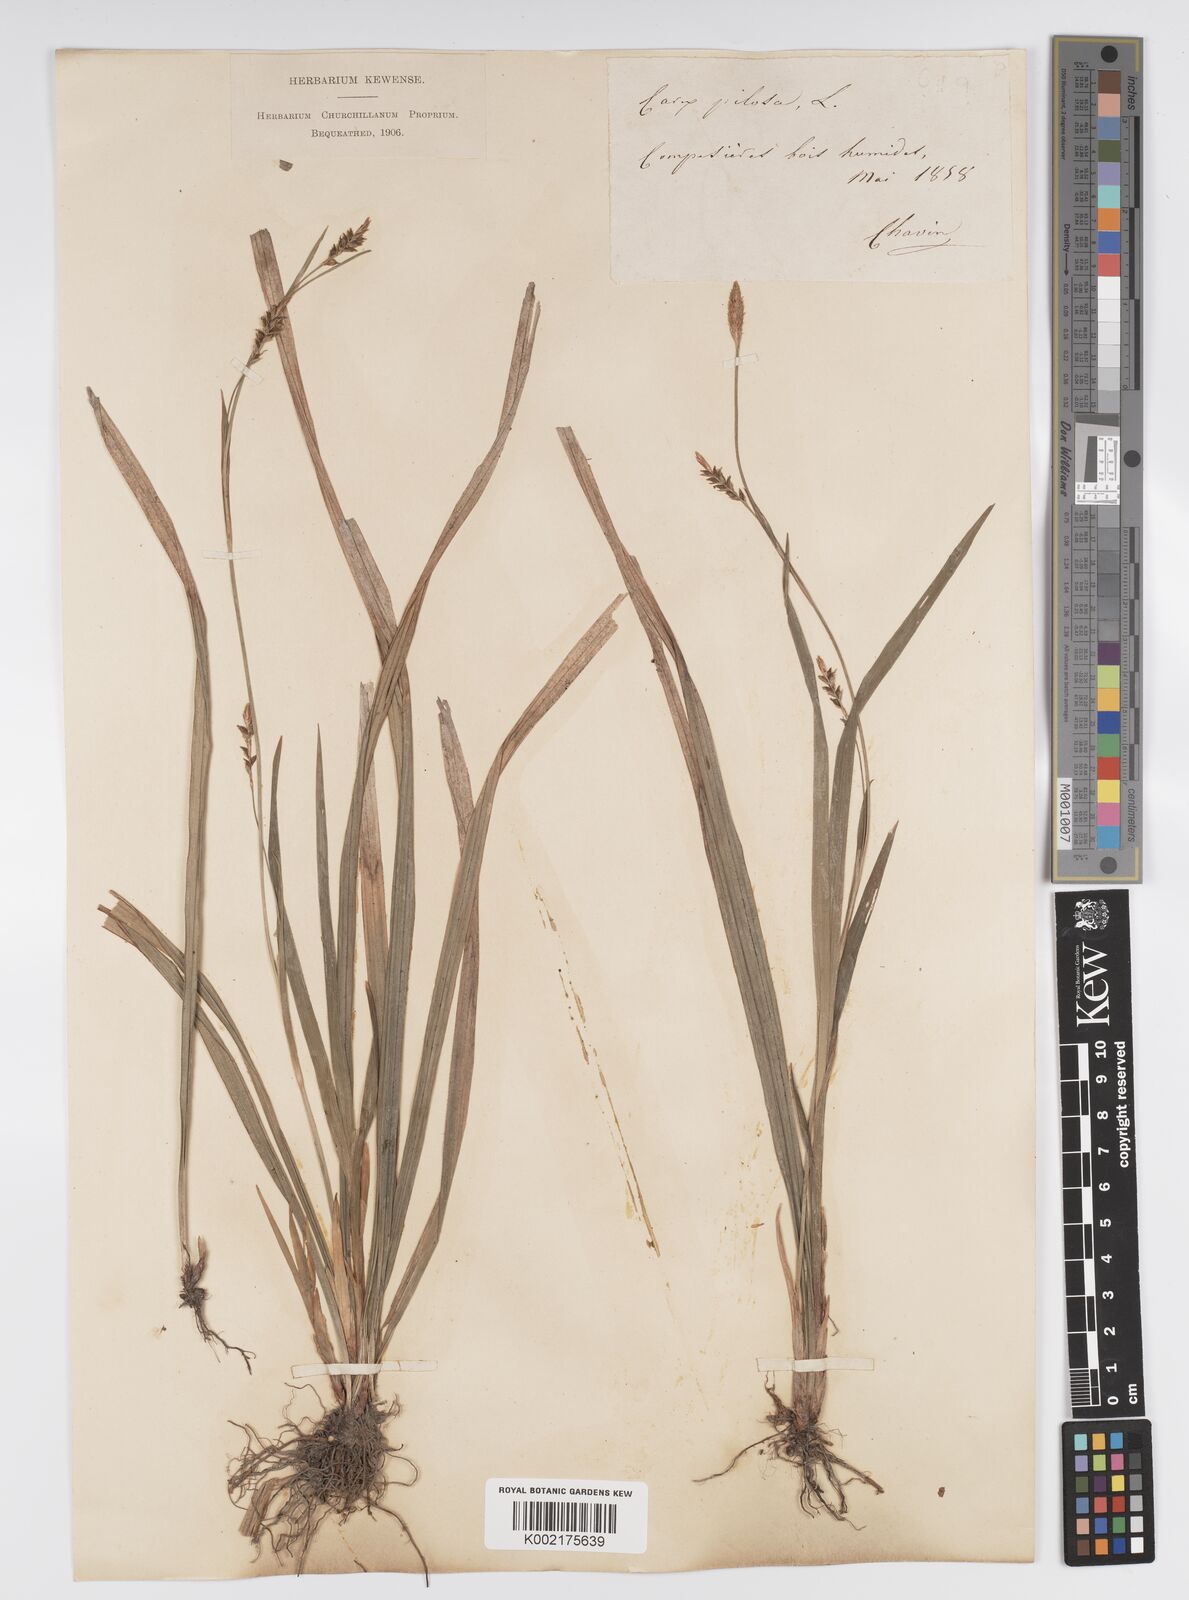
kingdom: Plantae
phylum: Tracheophyta
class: Liliopsida
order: Poales
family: Cyperaceae
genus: Carex
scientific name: Carex pilosa
